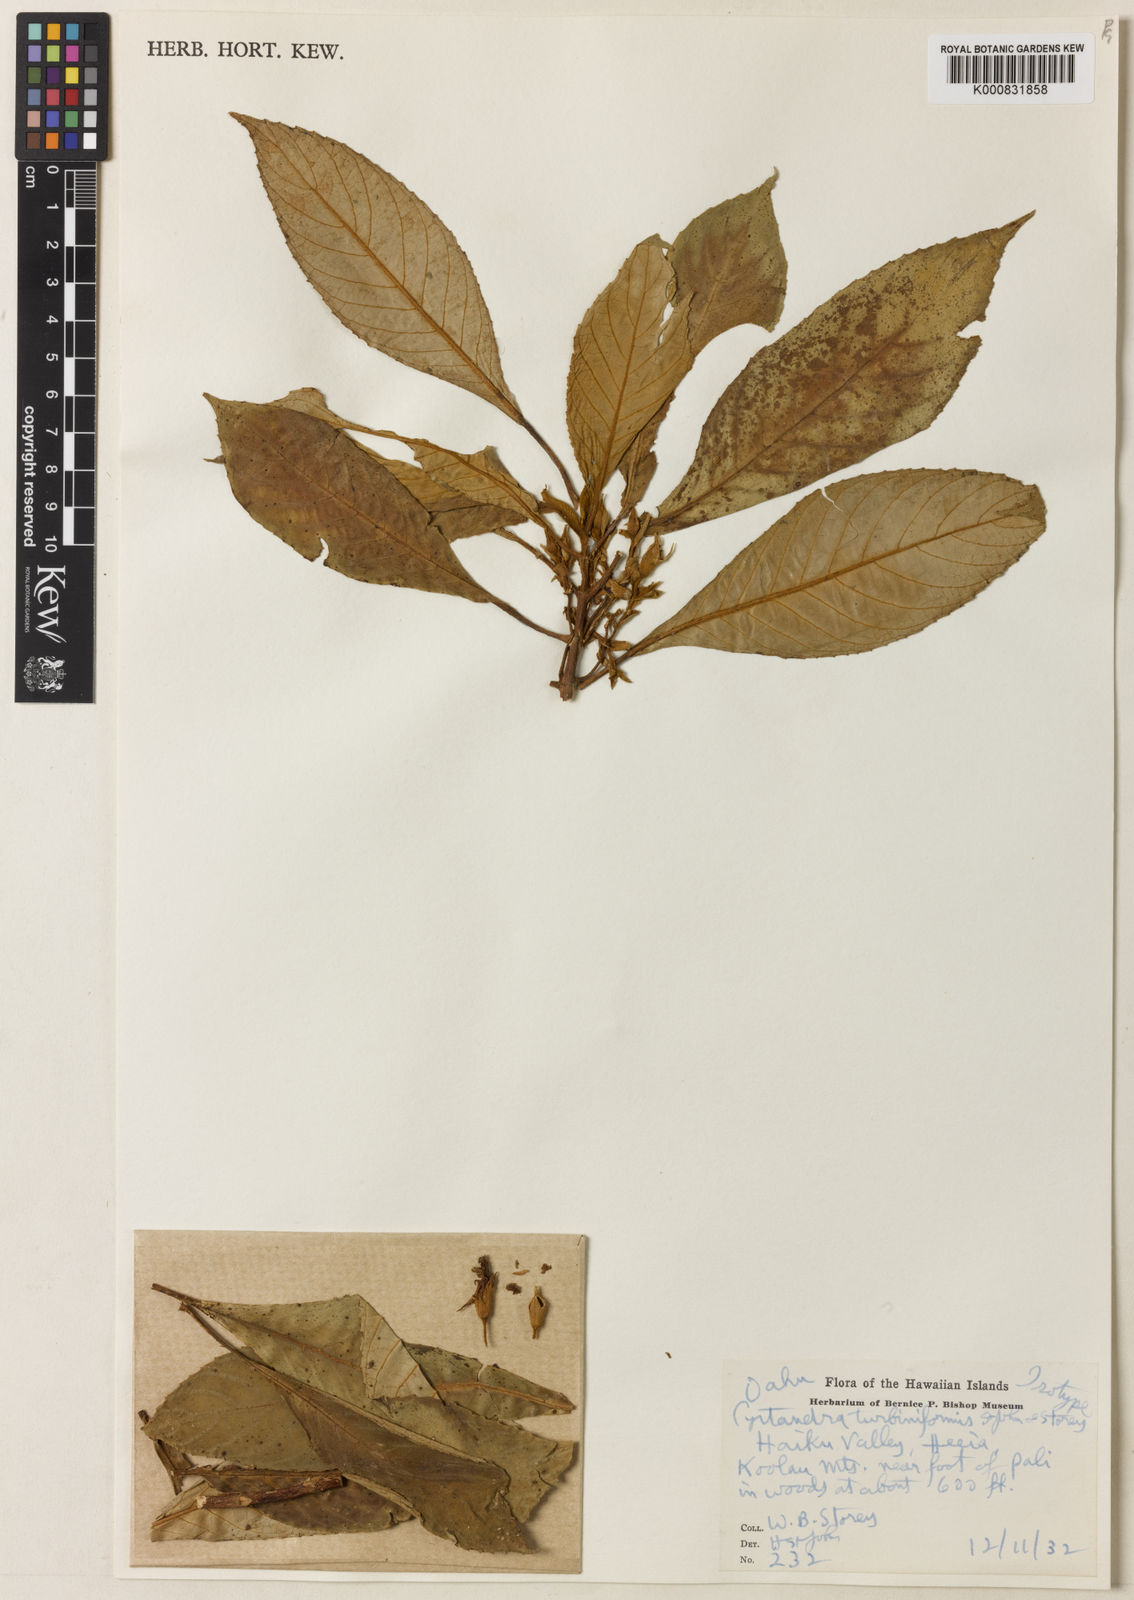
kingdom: Plantae
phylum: Tracheophyta
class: Magnoliopsida
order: Lamiales
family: Gesneriaceae
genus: Cyrtandra
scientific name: Cyrtandra turbiniformis
